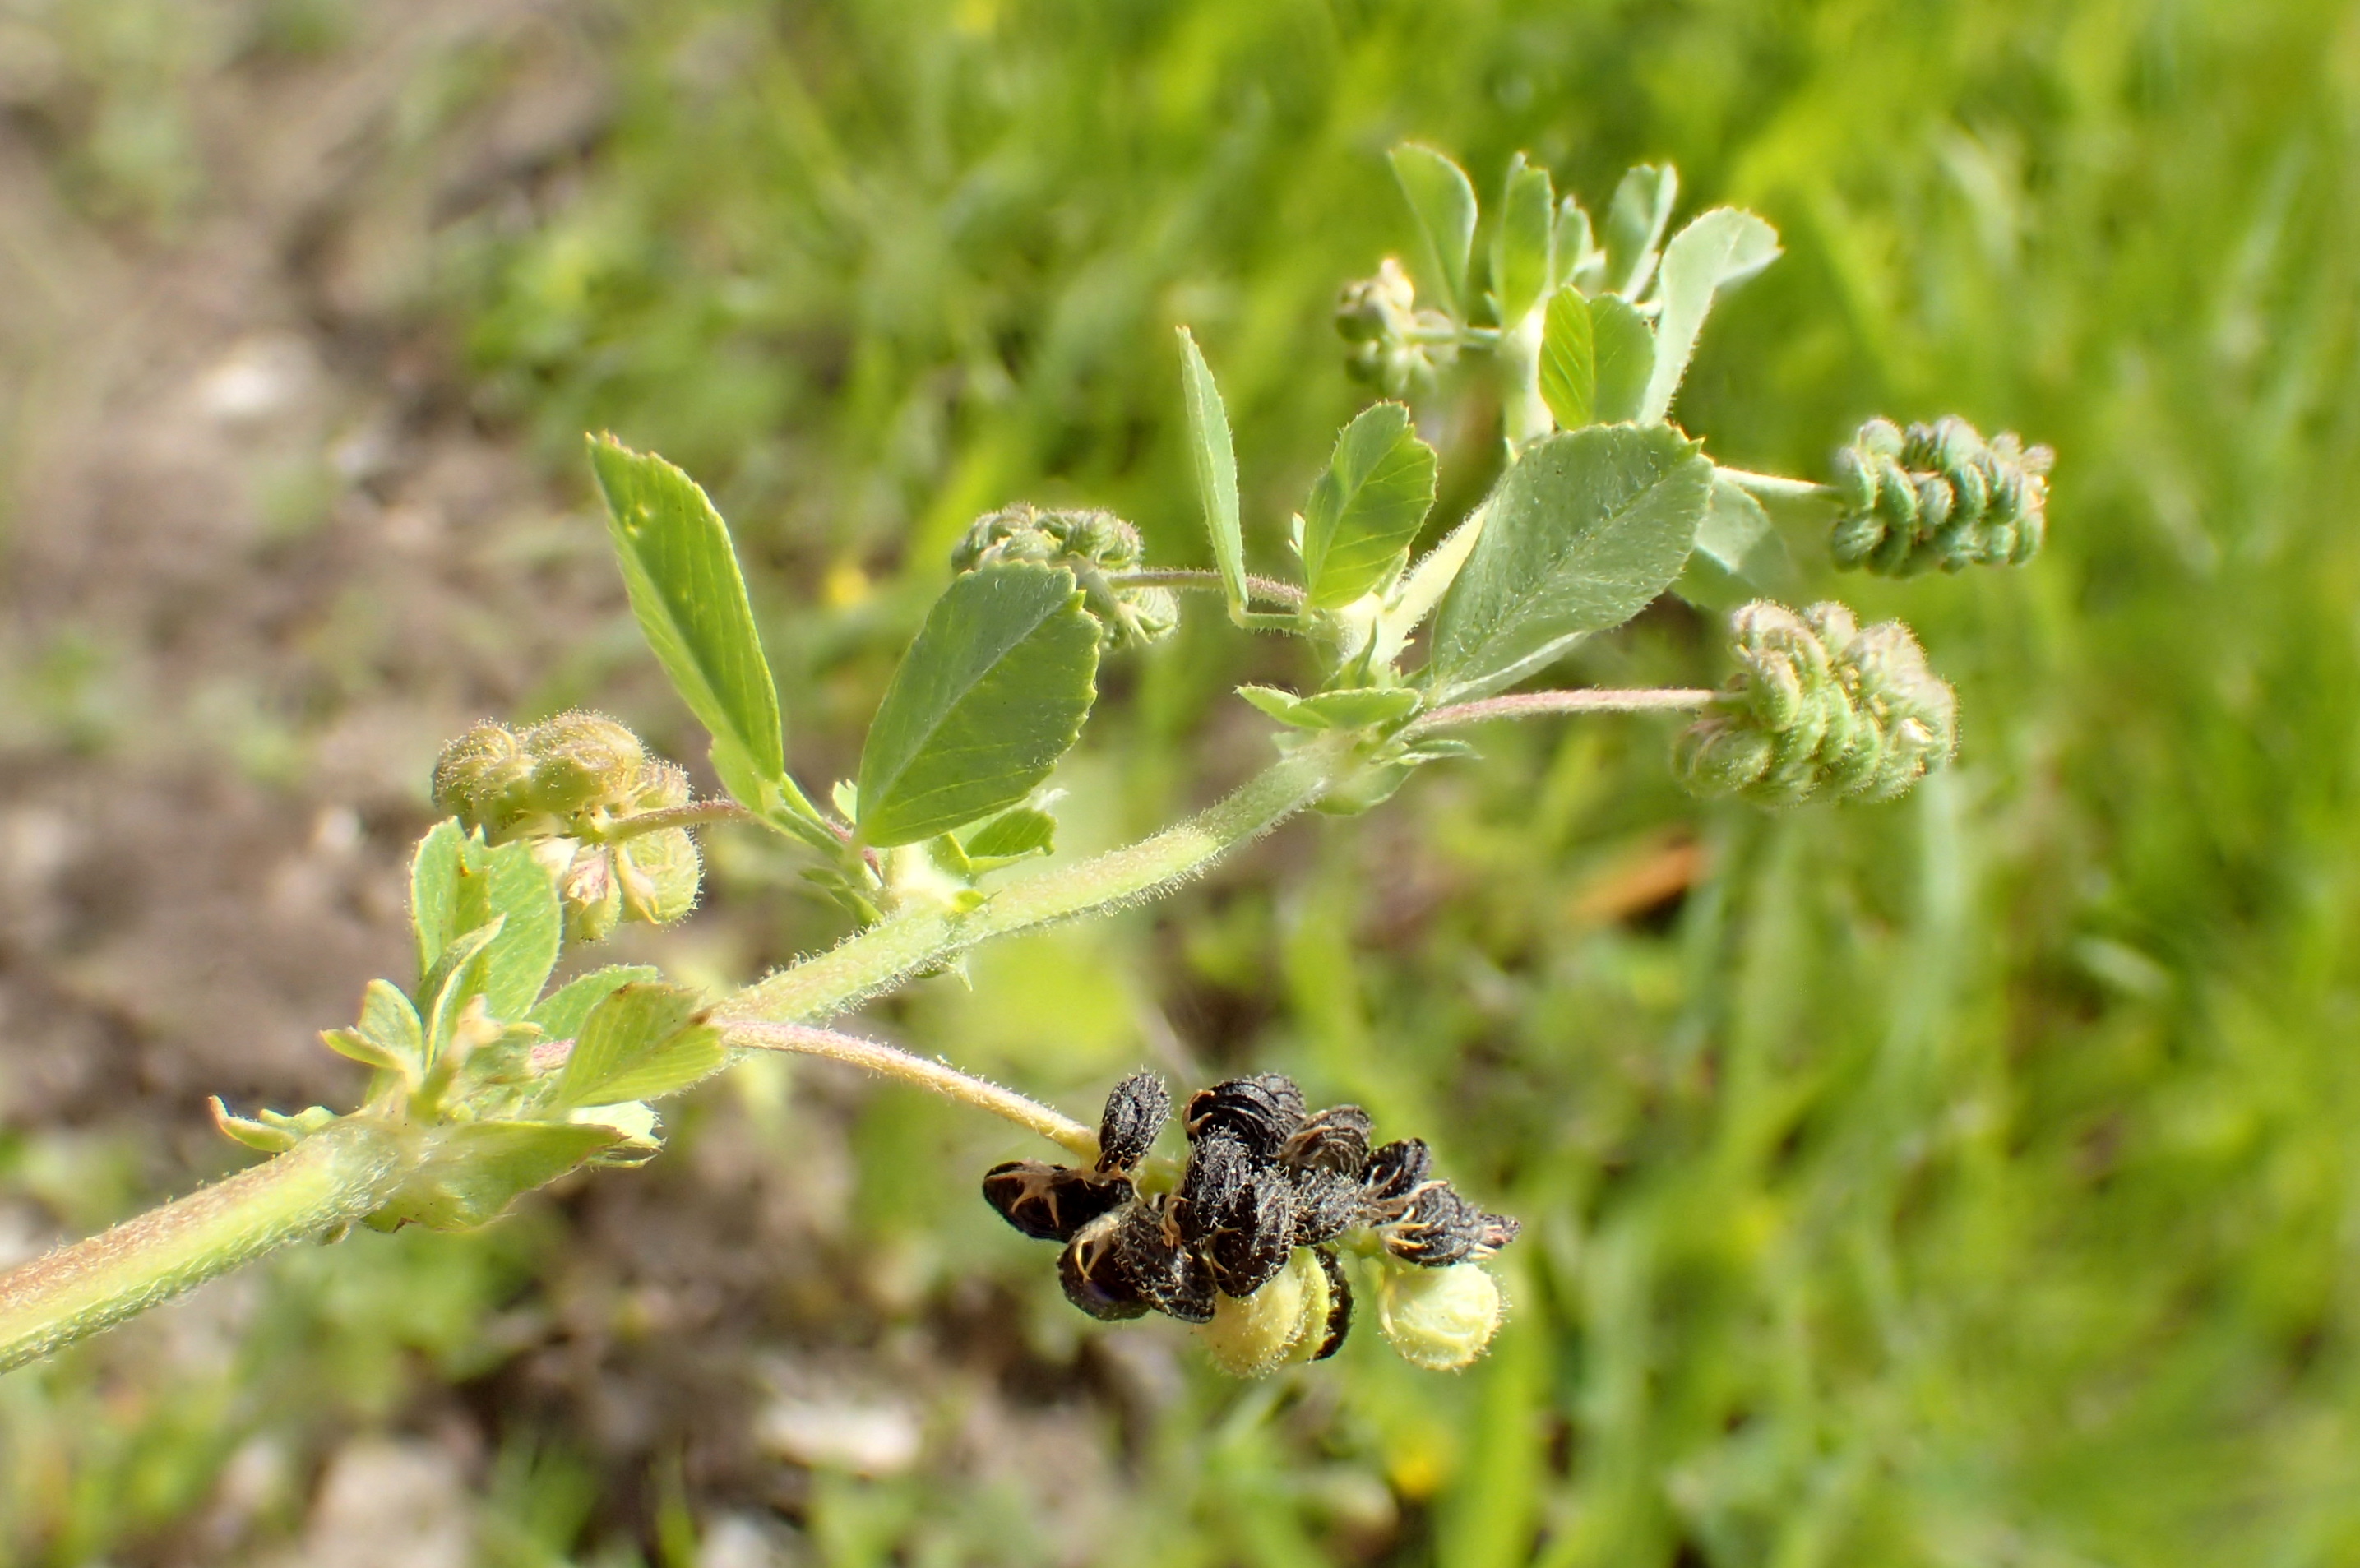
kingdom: Plantae
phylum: Tracheophyta
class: Magnoliopsida
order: Fabales
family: Fabaceae
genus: Medicago
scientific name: Medicago lupulina
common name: Humle-sneglebælg
